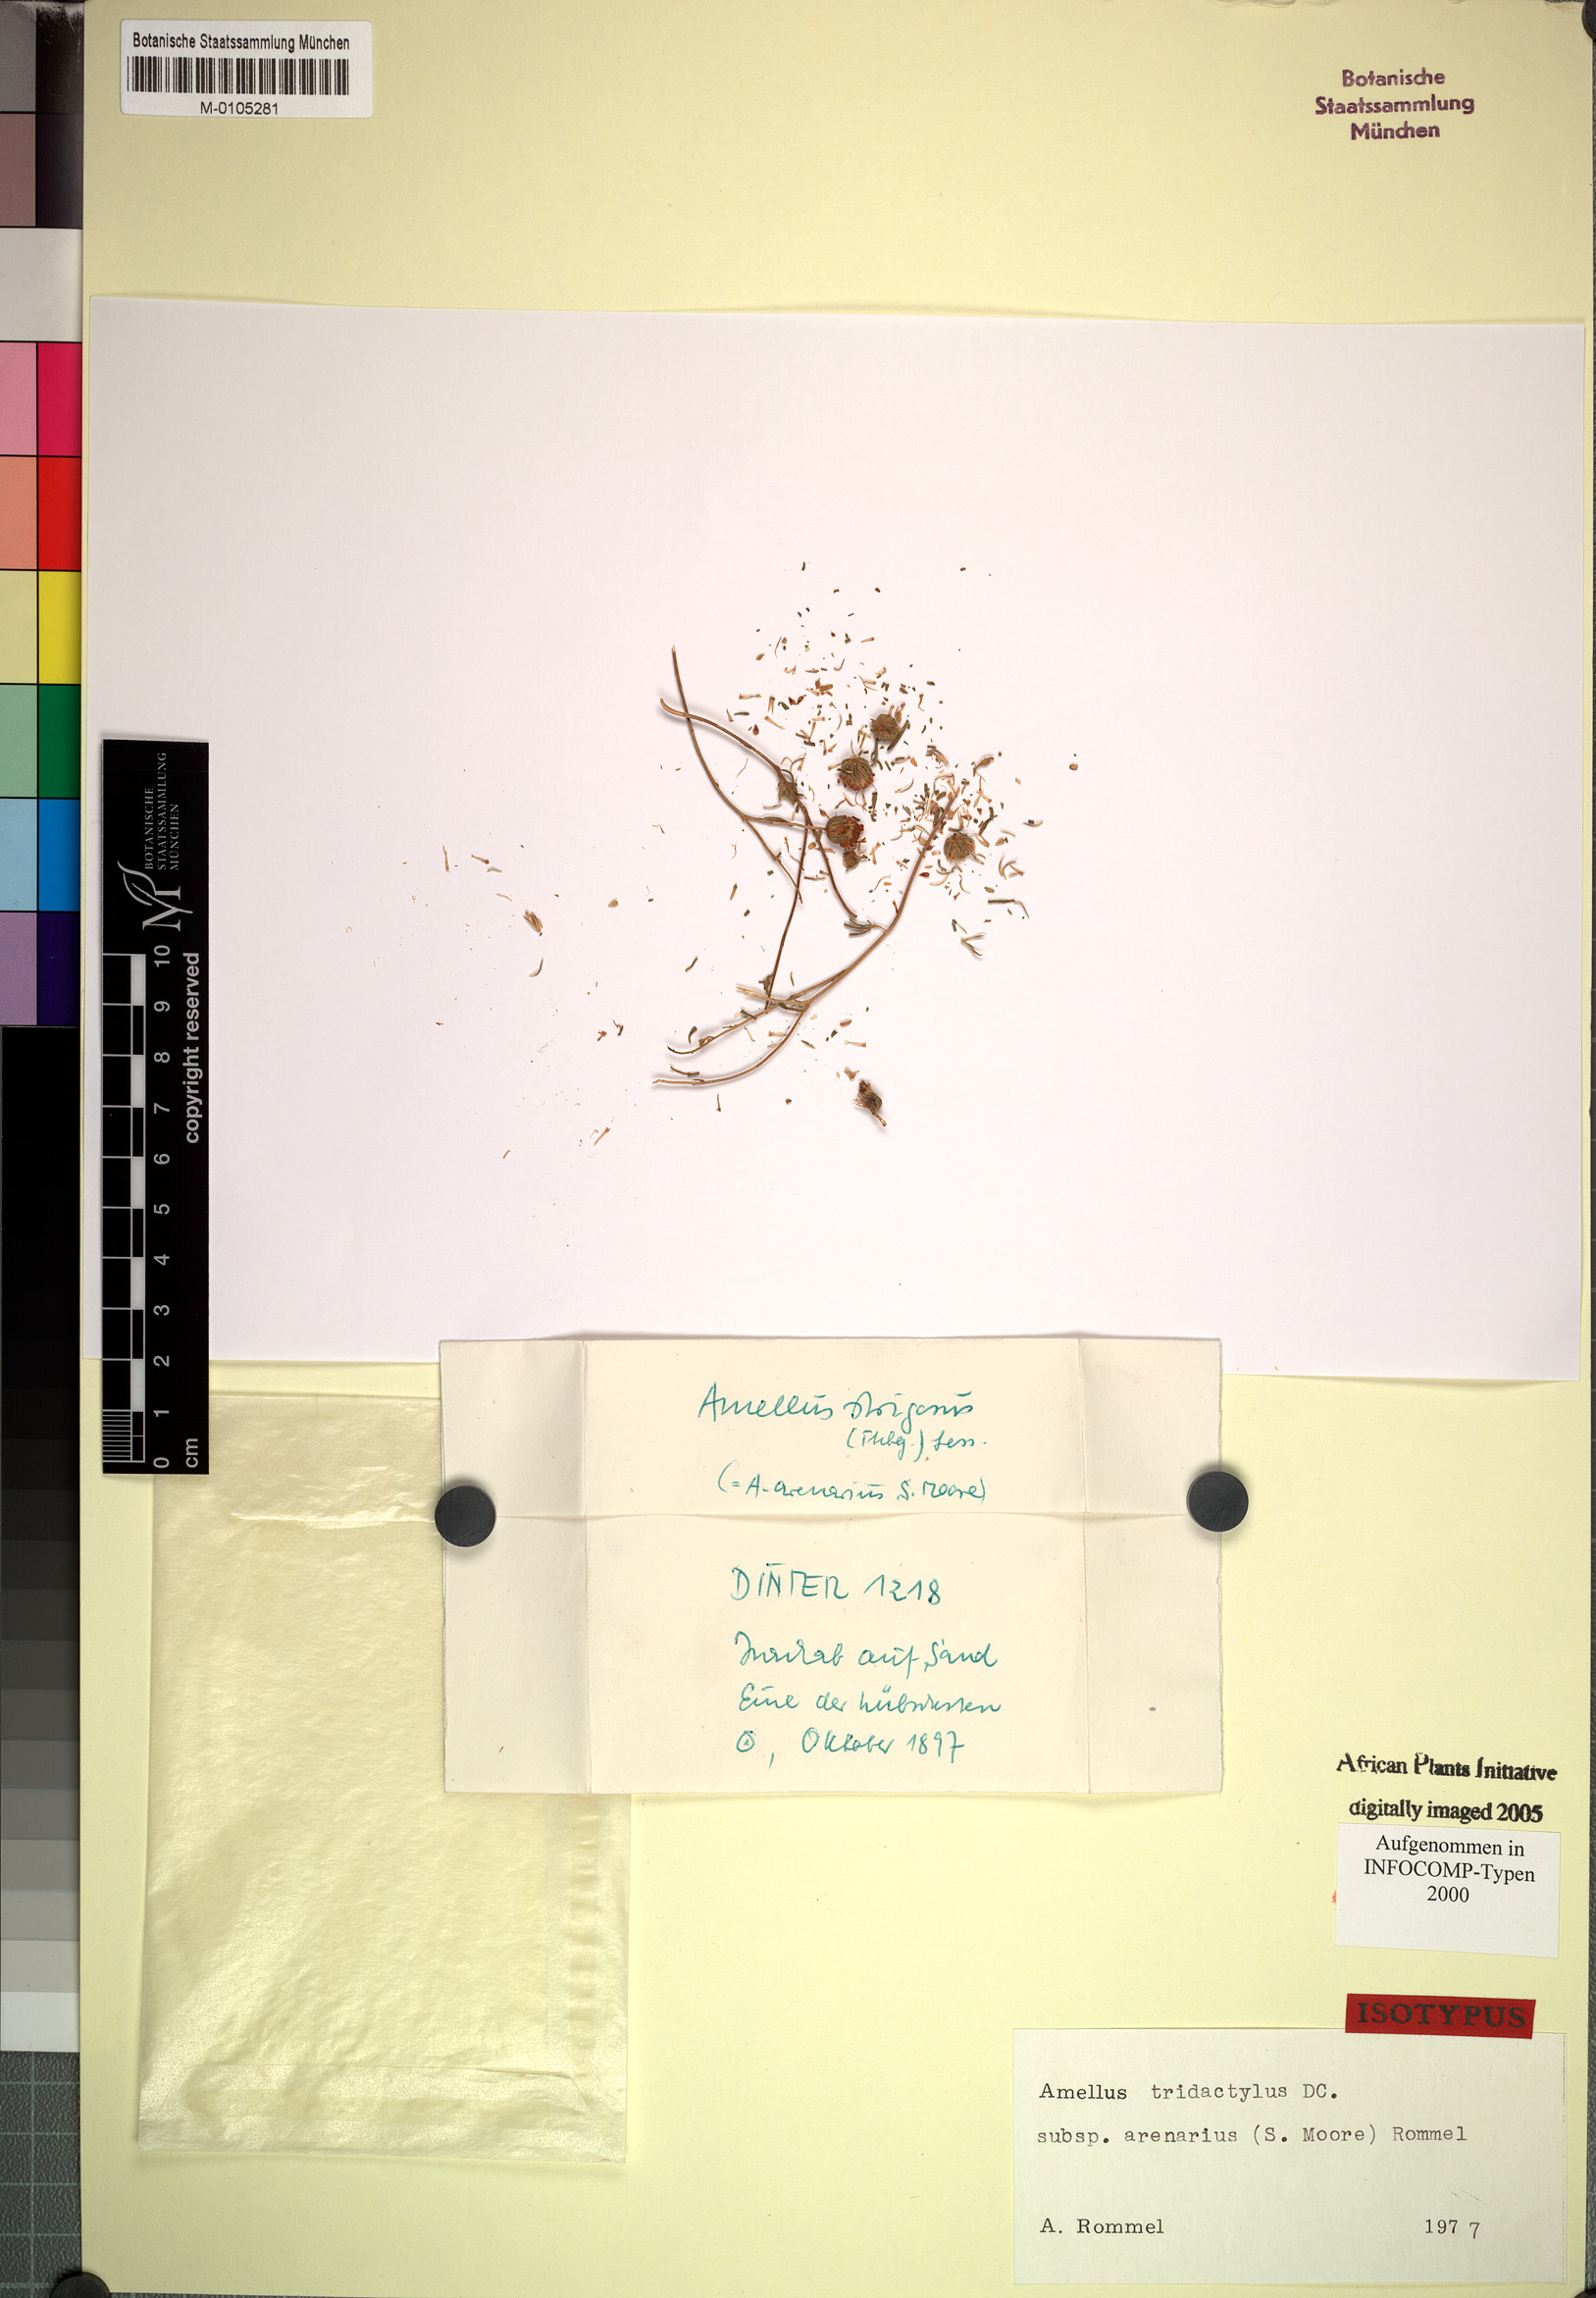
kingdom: Plantae
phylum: Tracheophyta
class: Magnoliopsida
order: Asterales
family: Asteraceae
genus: Amellus
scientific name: Amellus tridactylus
